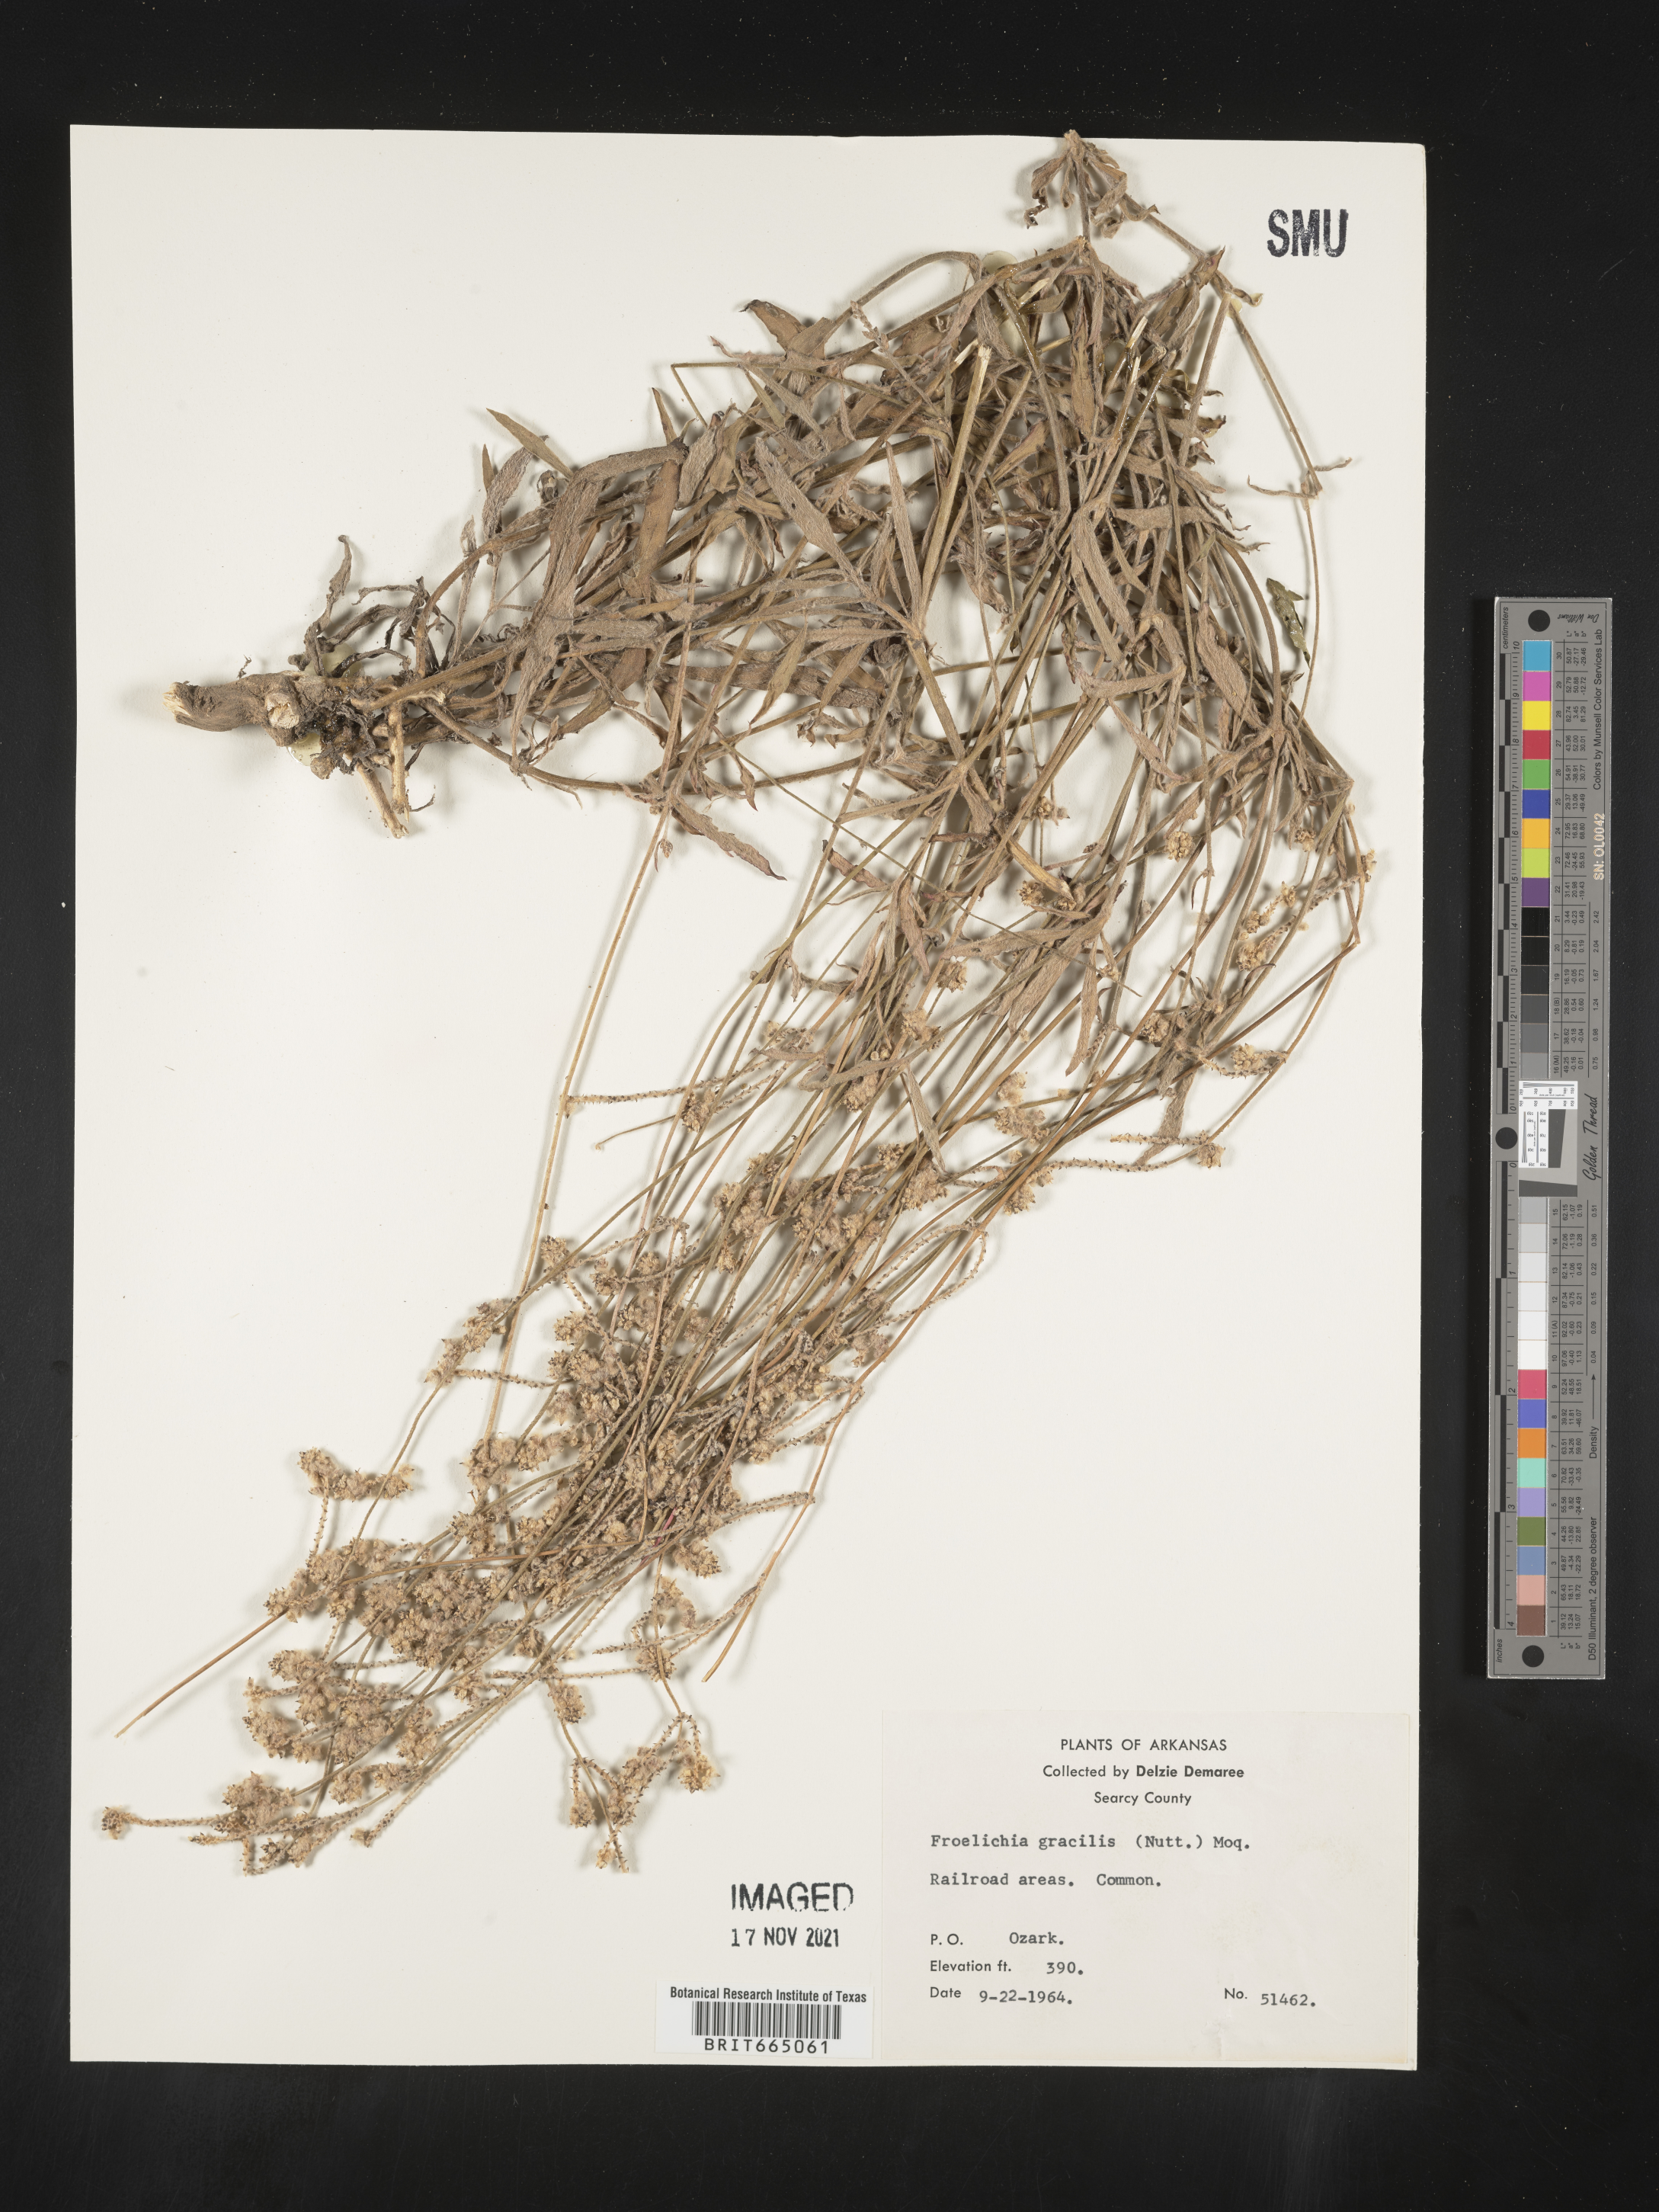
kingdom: Plantae
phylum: Tracheophyta
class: Magnoliopsida
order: Caryophyllales
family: Amaranthaceae
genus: Froelichia
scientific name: Froelichia gracilis
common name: Slender cottonweed
